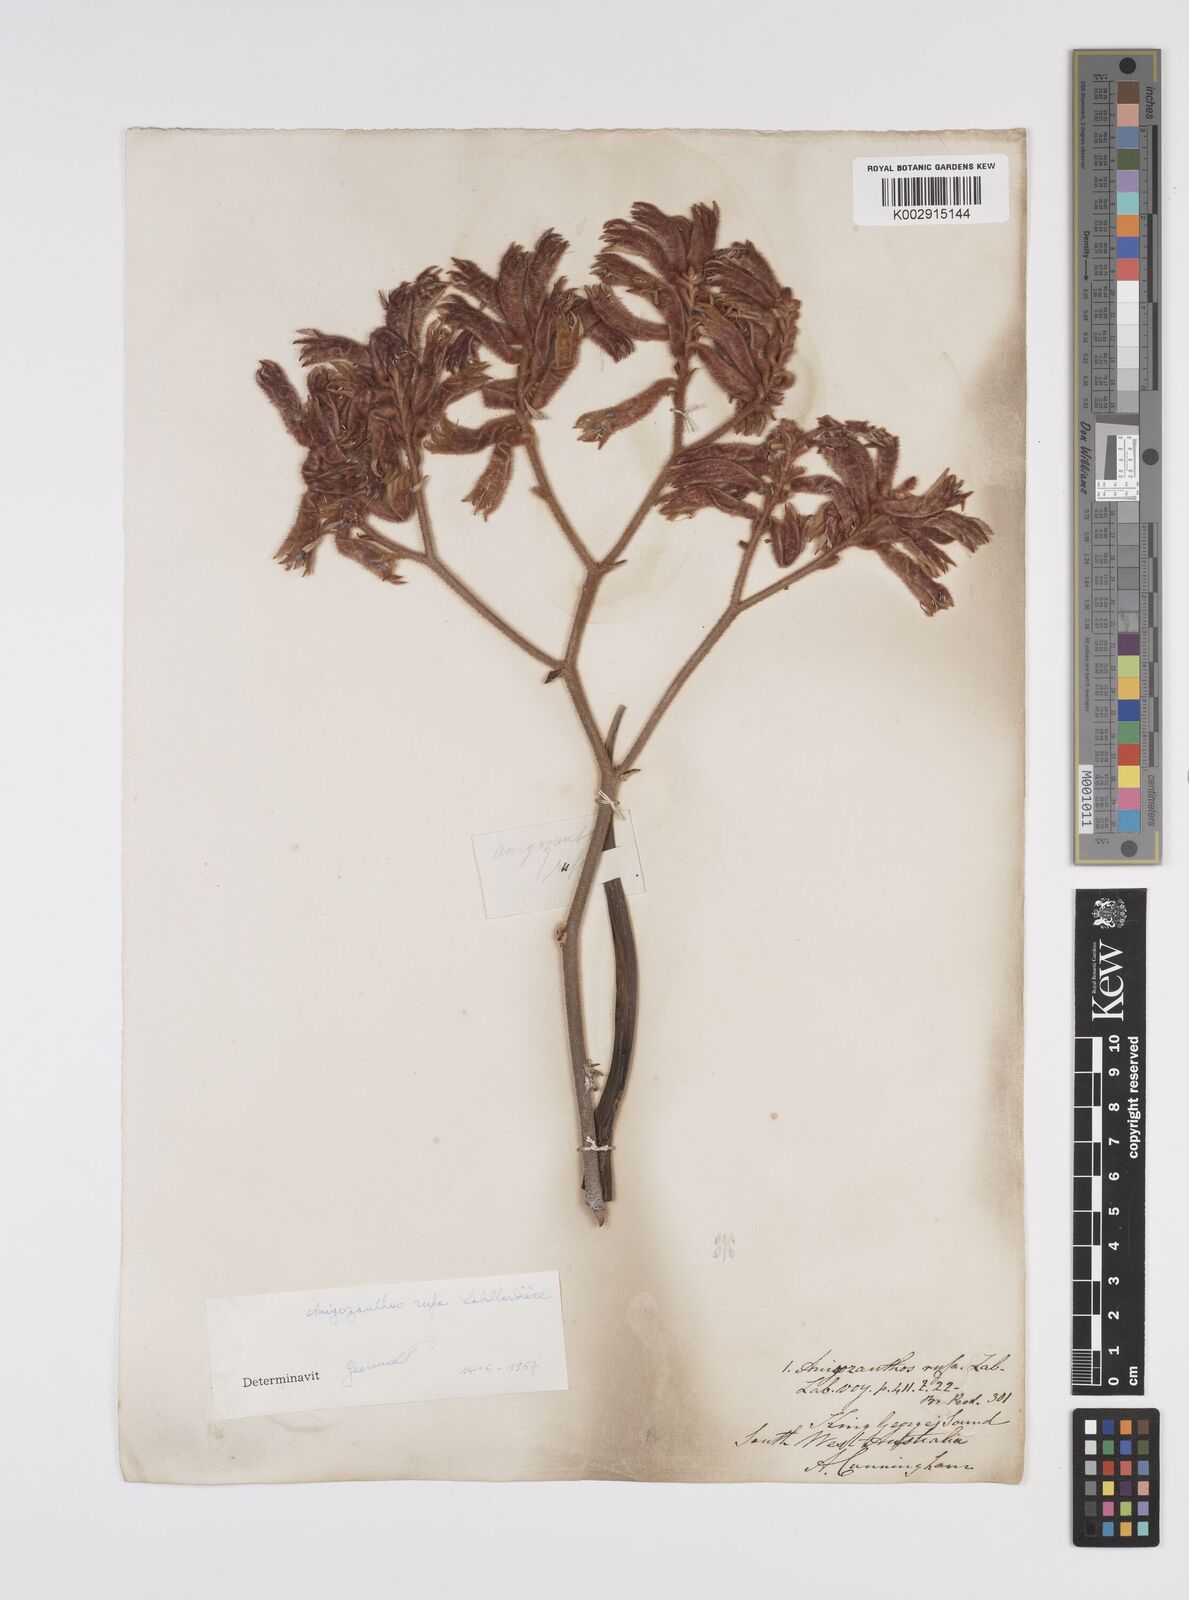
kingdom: Plantae
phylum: Tracheophyta
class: Liliopsida
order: Commelinales
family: Haemodoraceae
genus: Anigozanthos
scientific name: Anigozanthos rufus
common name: Red kangaroo-paw
